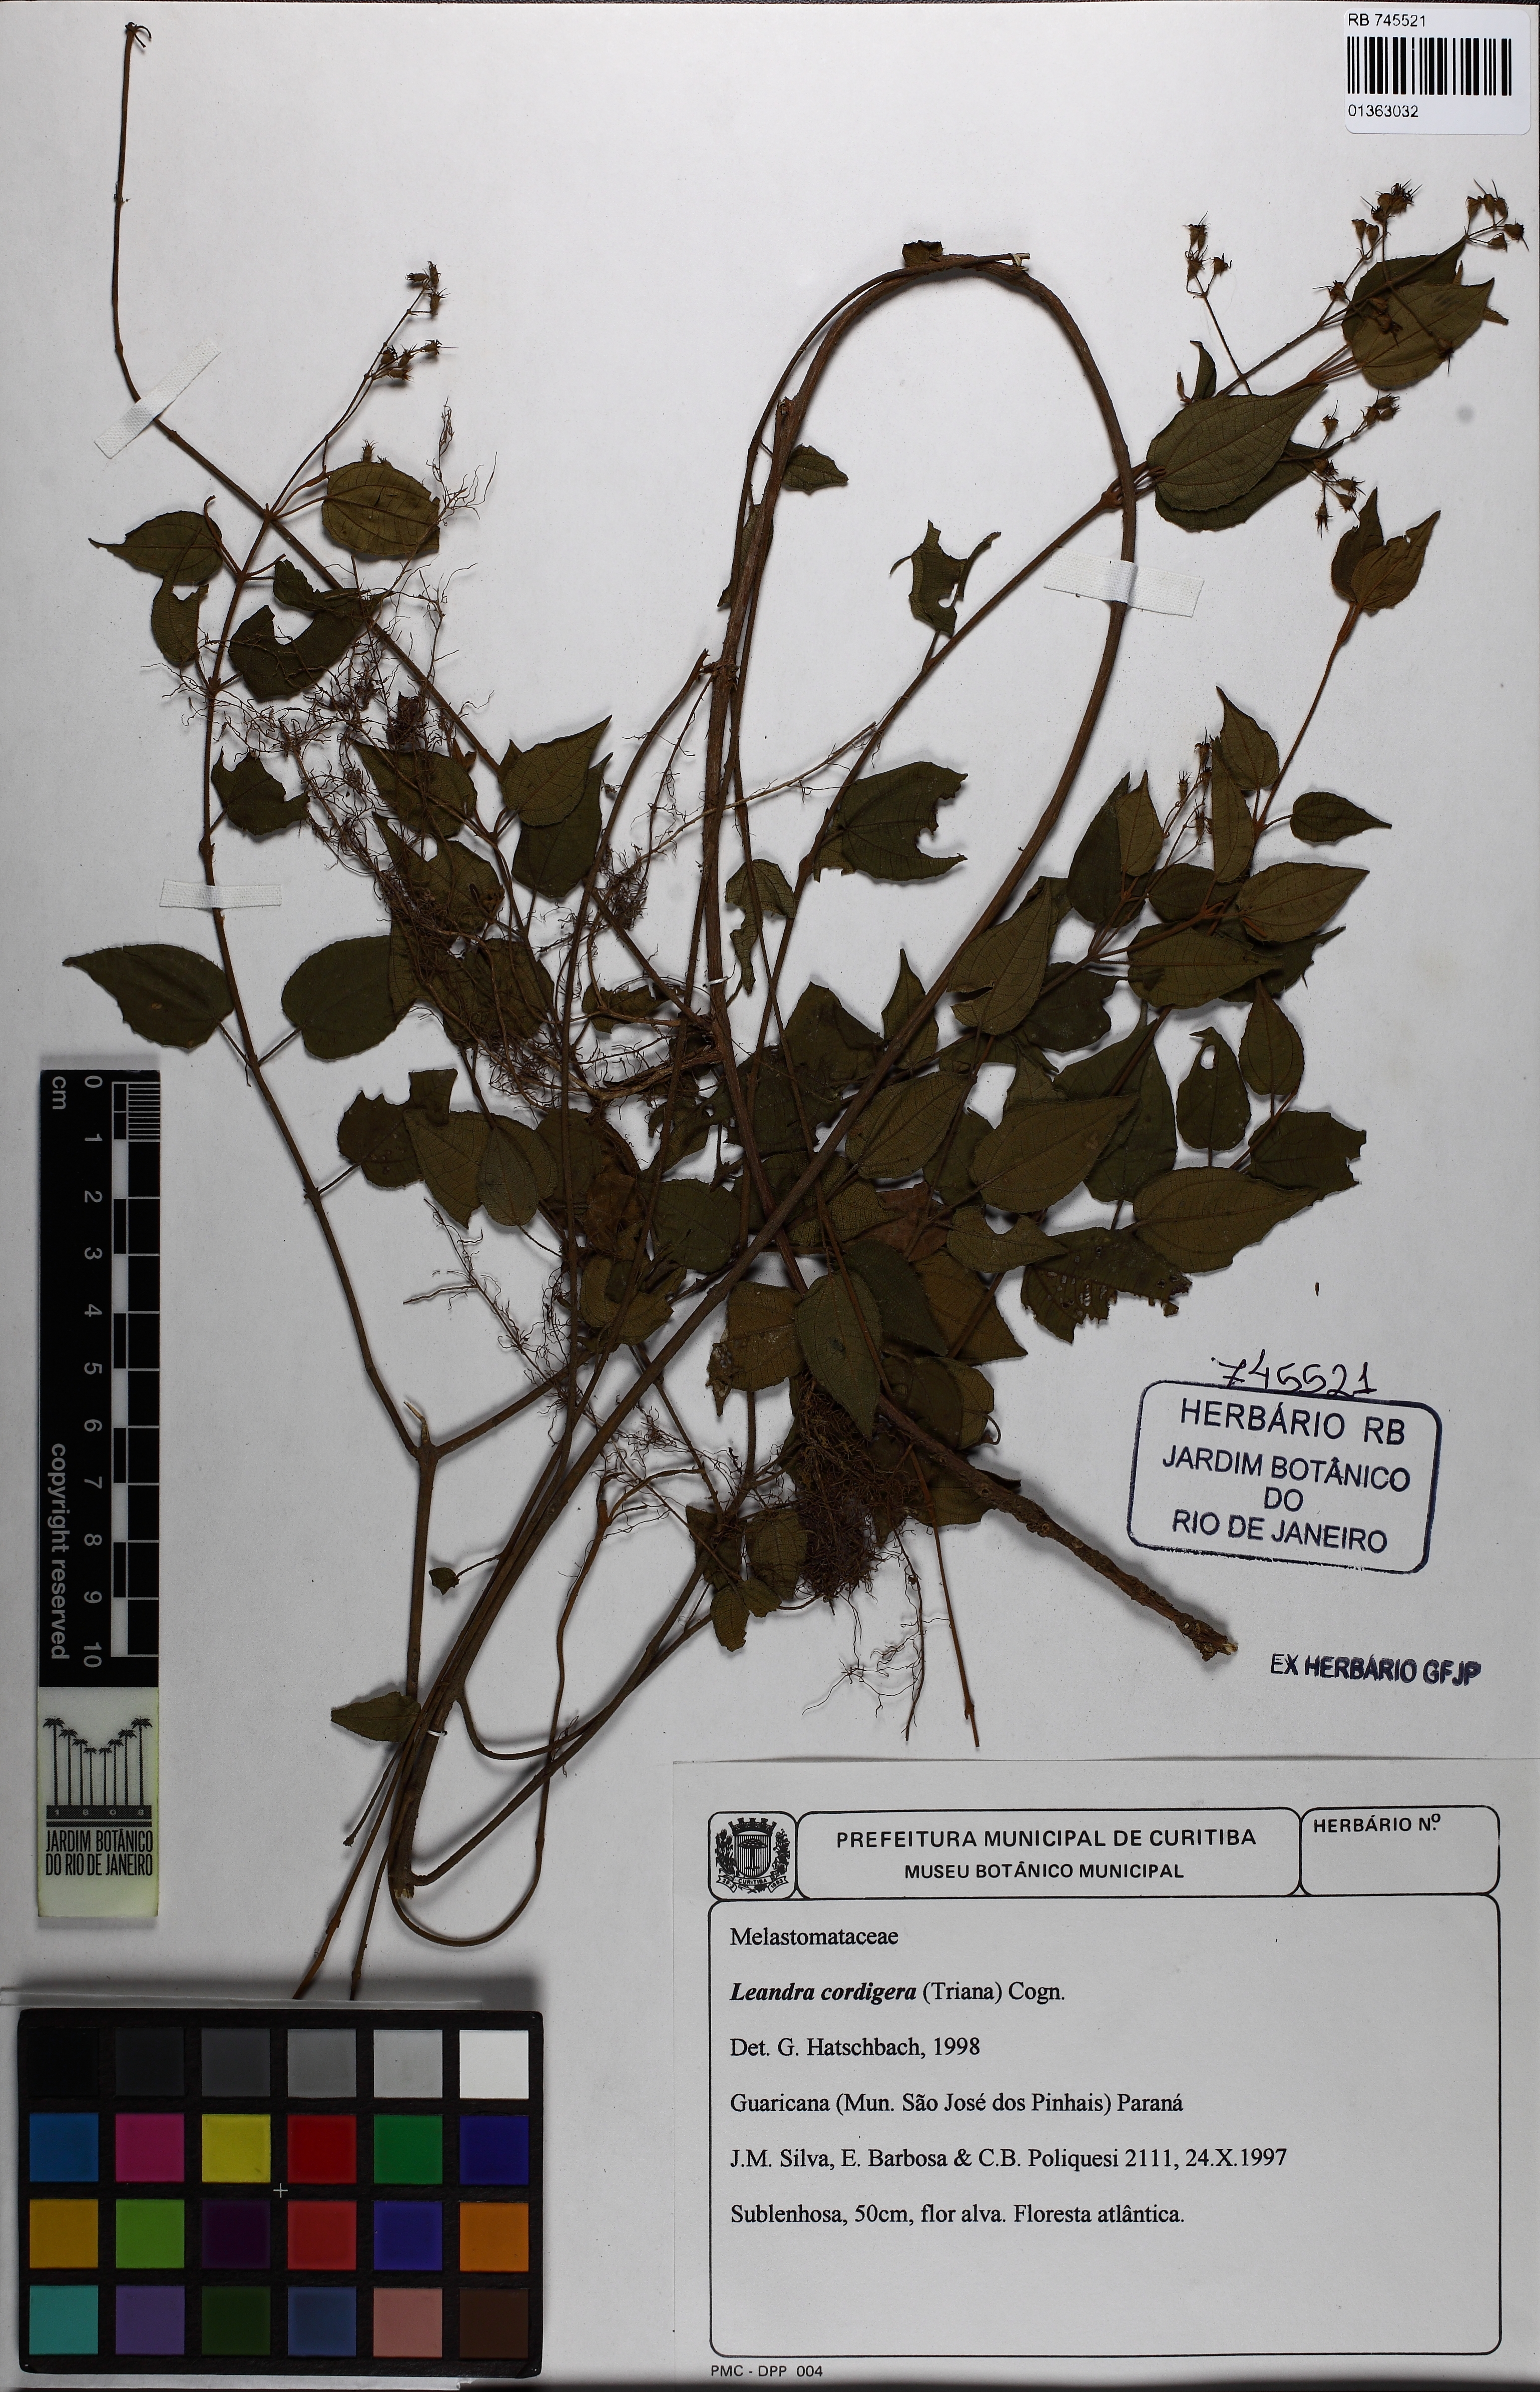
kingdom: Plantae
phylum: Tracheophyta
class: Magnoliopsida
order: Myrtales
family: Melastomataceae
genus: Miconia
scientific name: Miconia cordigera
